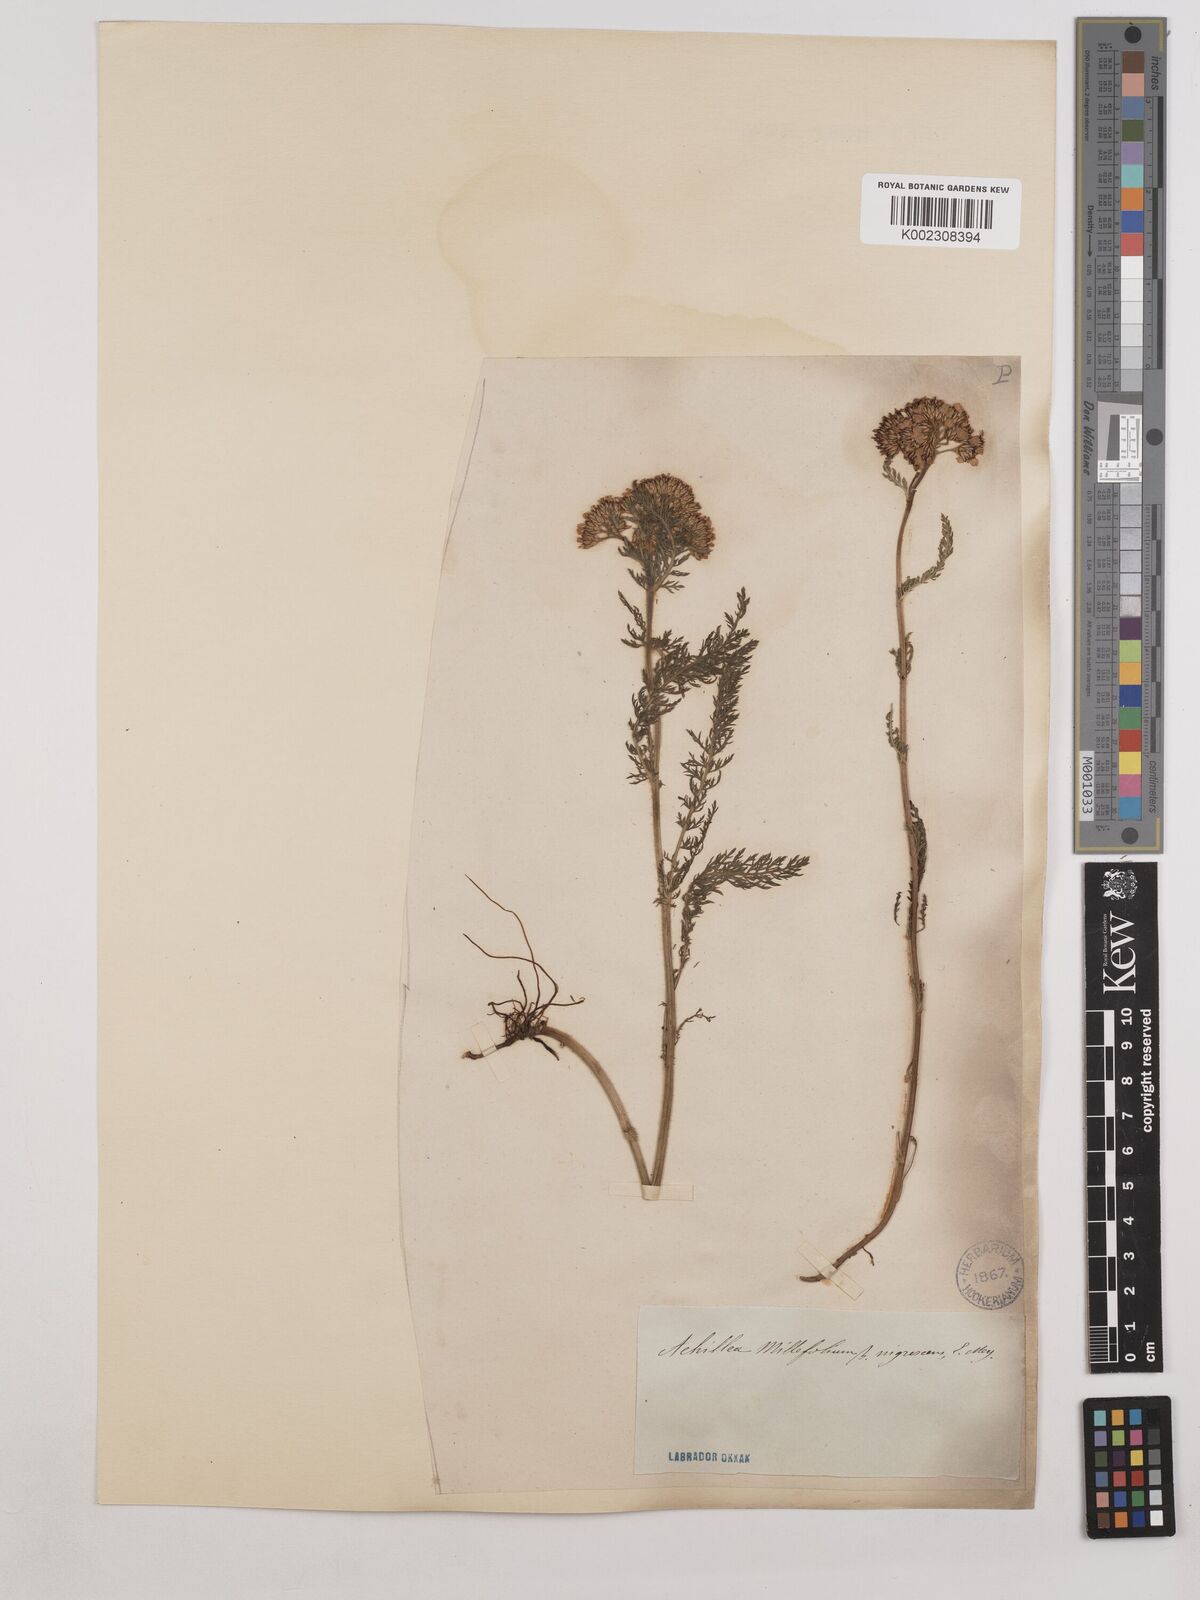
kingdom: Plantae
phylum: Tracheophyta
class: Magnoliopsida
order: Asterales
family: Asteraceae
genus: Achillea
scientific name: Achillea millefolium
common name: Yarrow
